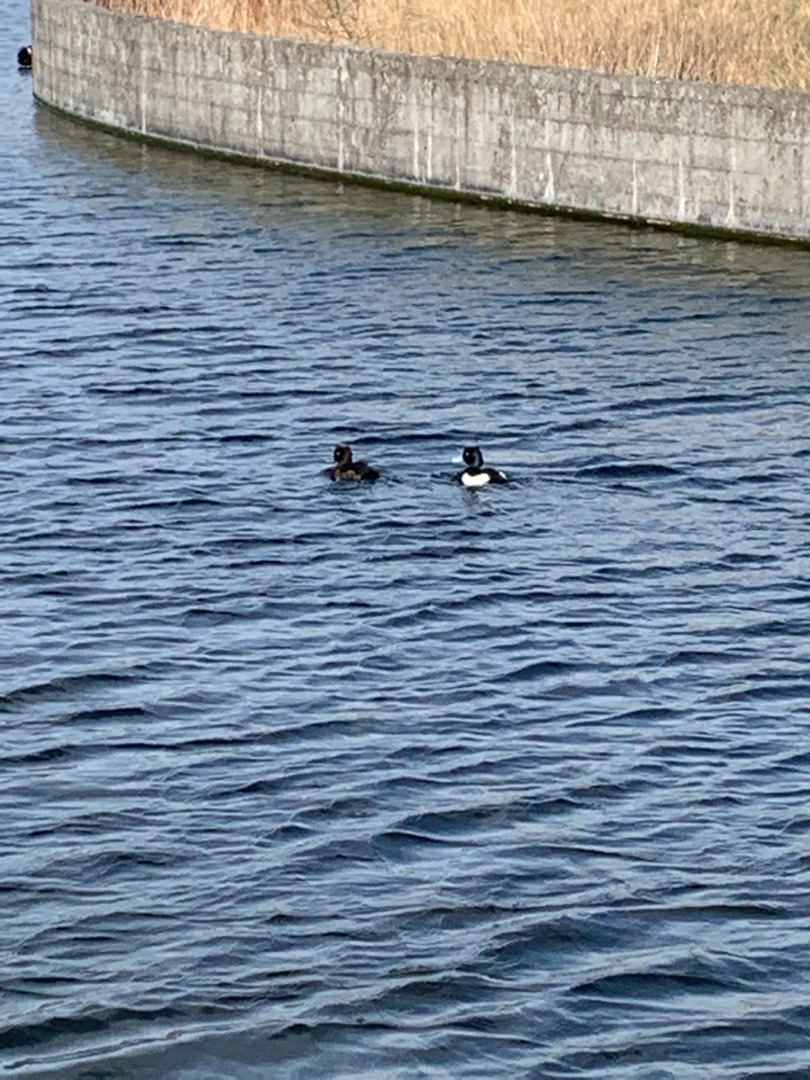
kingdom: Animalia
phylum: Chordata
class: Aves
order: Anseriformes
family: Anatidae
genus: Aythya
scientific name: Aythya fuligula
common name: Troldand
